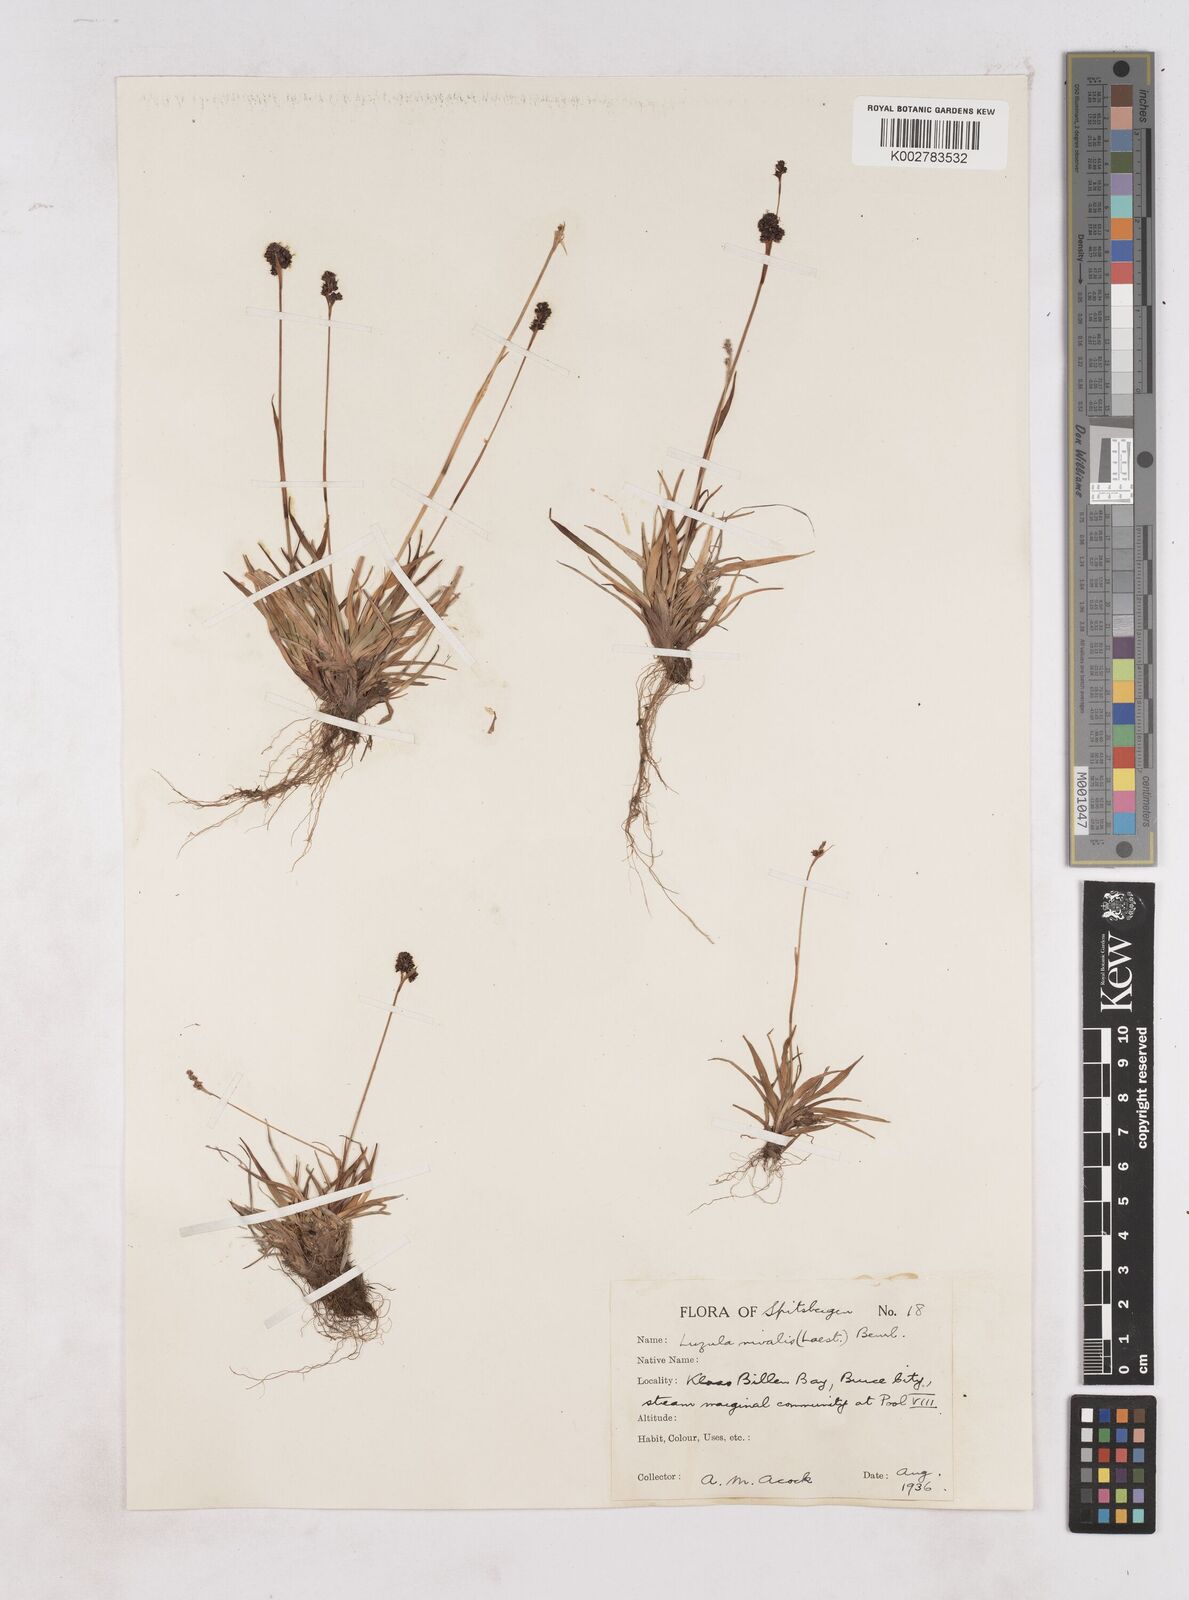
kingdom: Plantae
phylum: Tracheophyta
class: Liliopsida
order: Poales
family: Juncaceae
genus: Luzula
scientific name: Luzula nivalis
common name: Arctic woodrush
